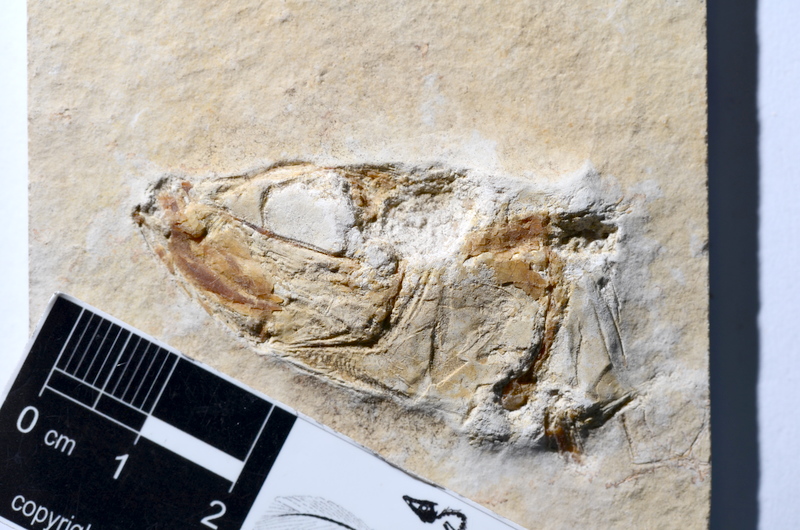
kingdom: Animalia
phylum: Chordata
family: Ascalaboidae
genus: Tharsis
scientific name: Tharsis dubius
